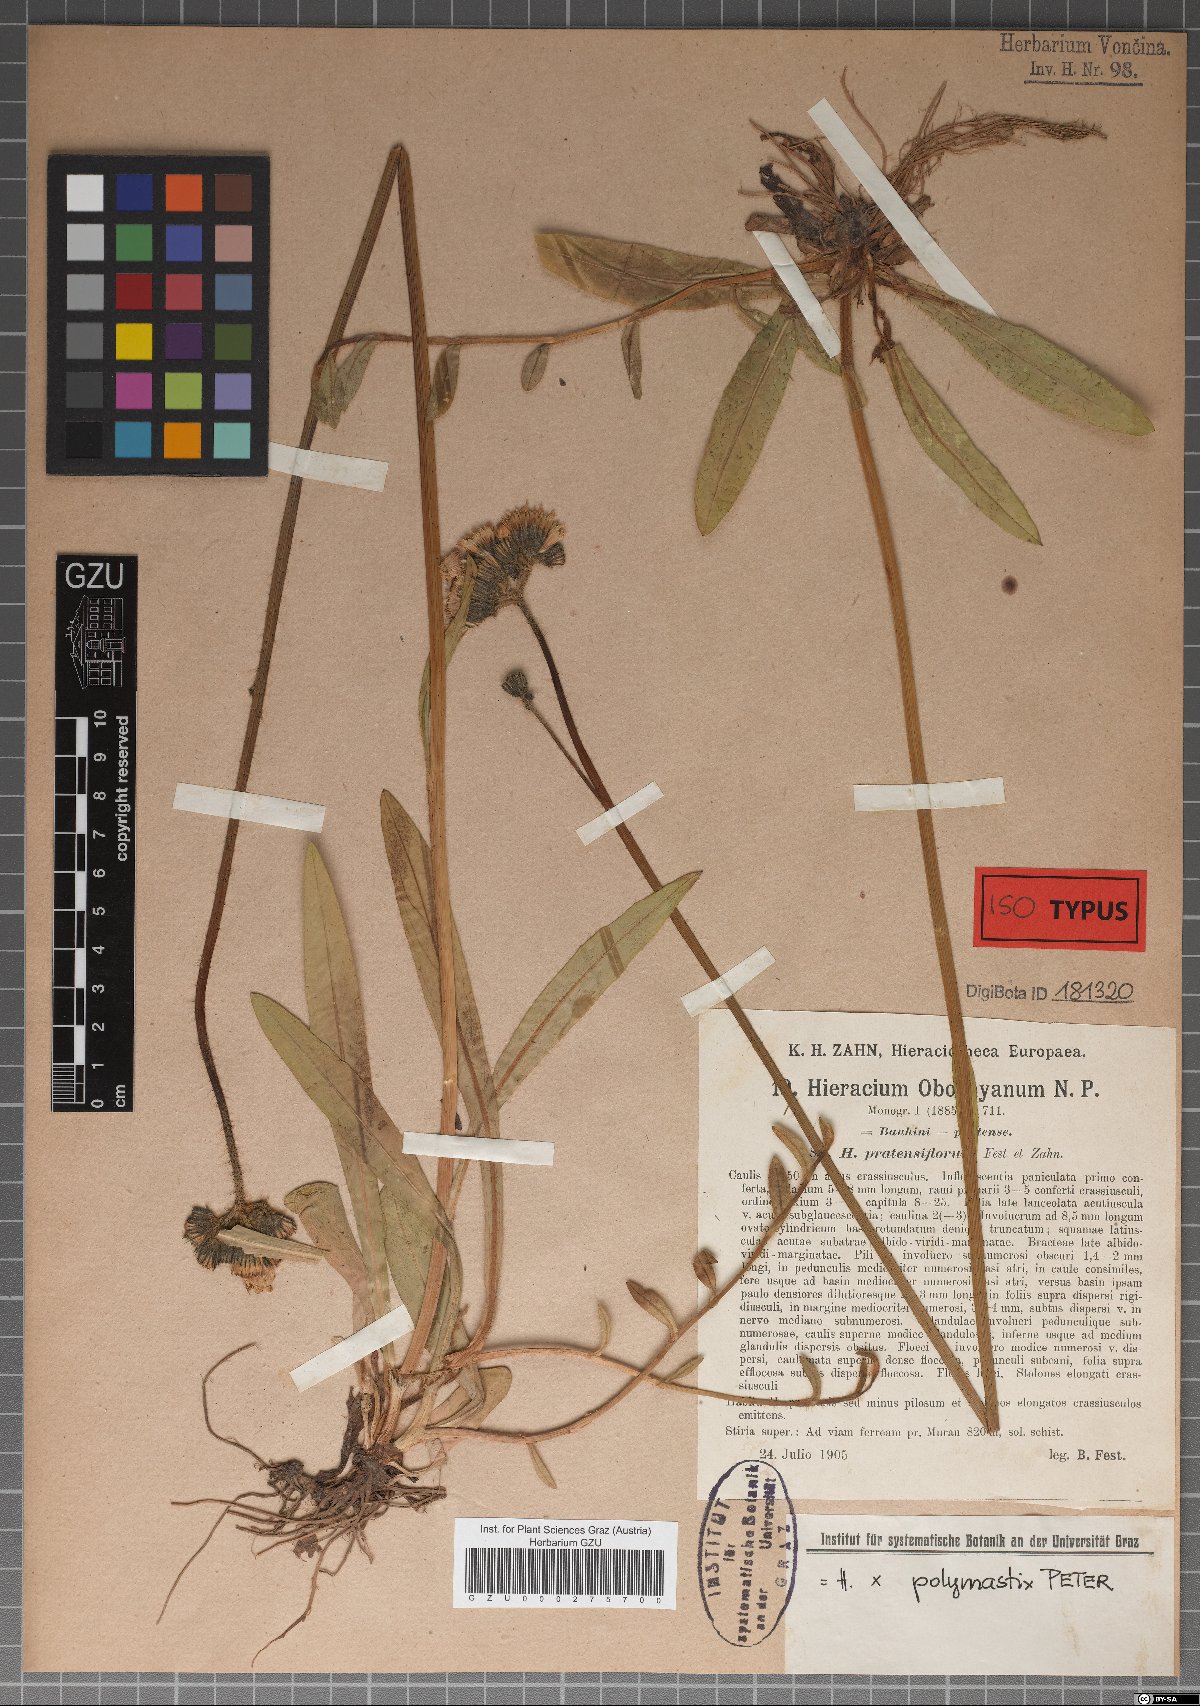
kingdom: Plantae
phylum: Tracheophyta
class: Magnoliopsida
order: Asterales
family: Asteraceae
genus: Pilosella
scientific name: Pilosella polymastix
